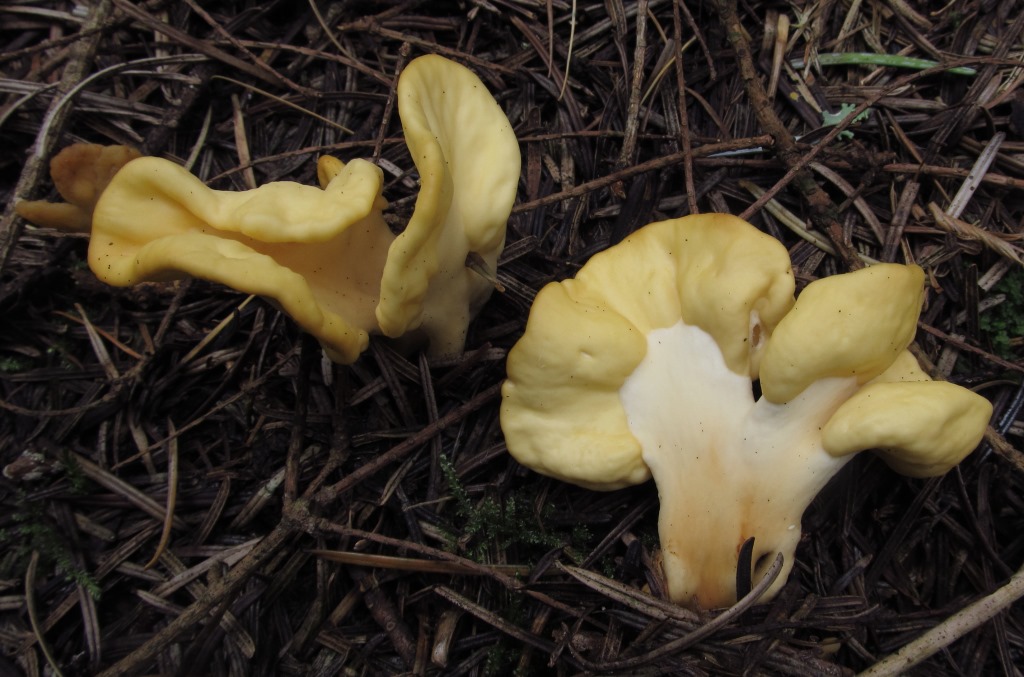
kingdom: Fungi
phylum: Ascomycota
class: Leotiomycetes
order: Rhytismatales
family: Cudoniaceae
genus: Spathularia
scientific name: Spathularia flavida
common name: gul spatelsvamp
